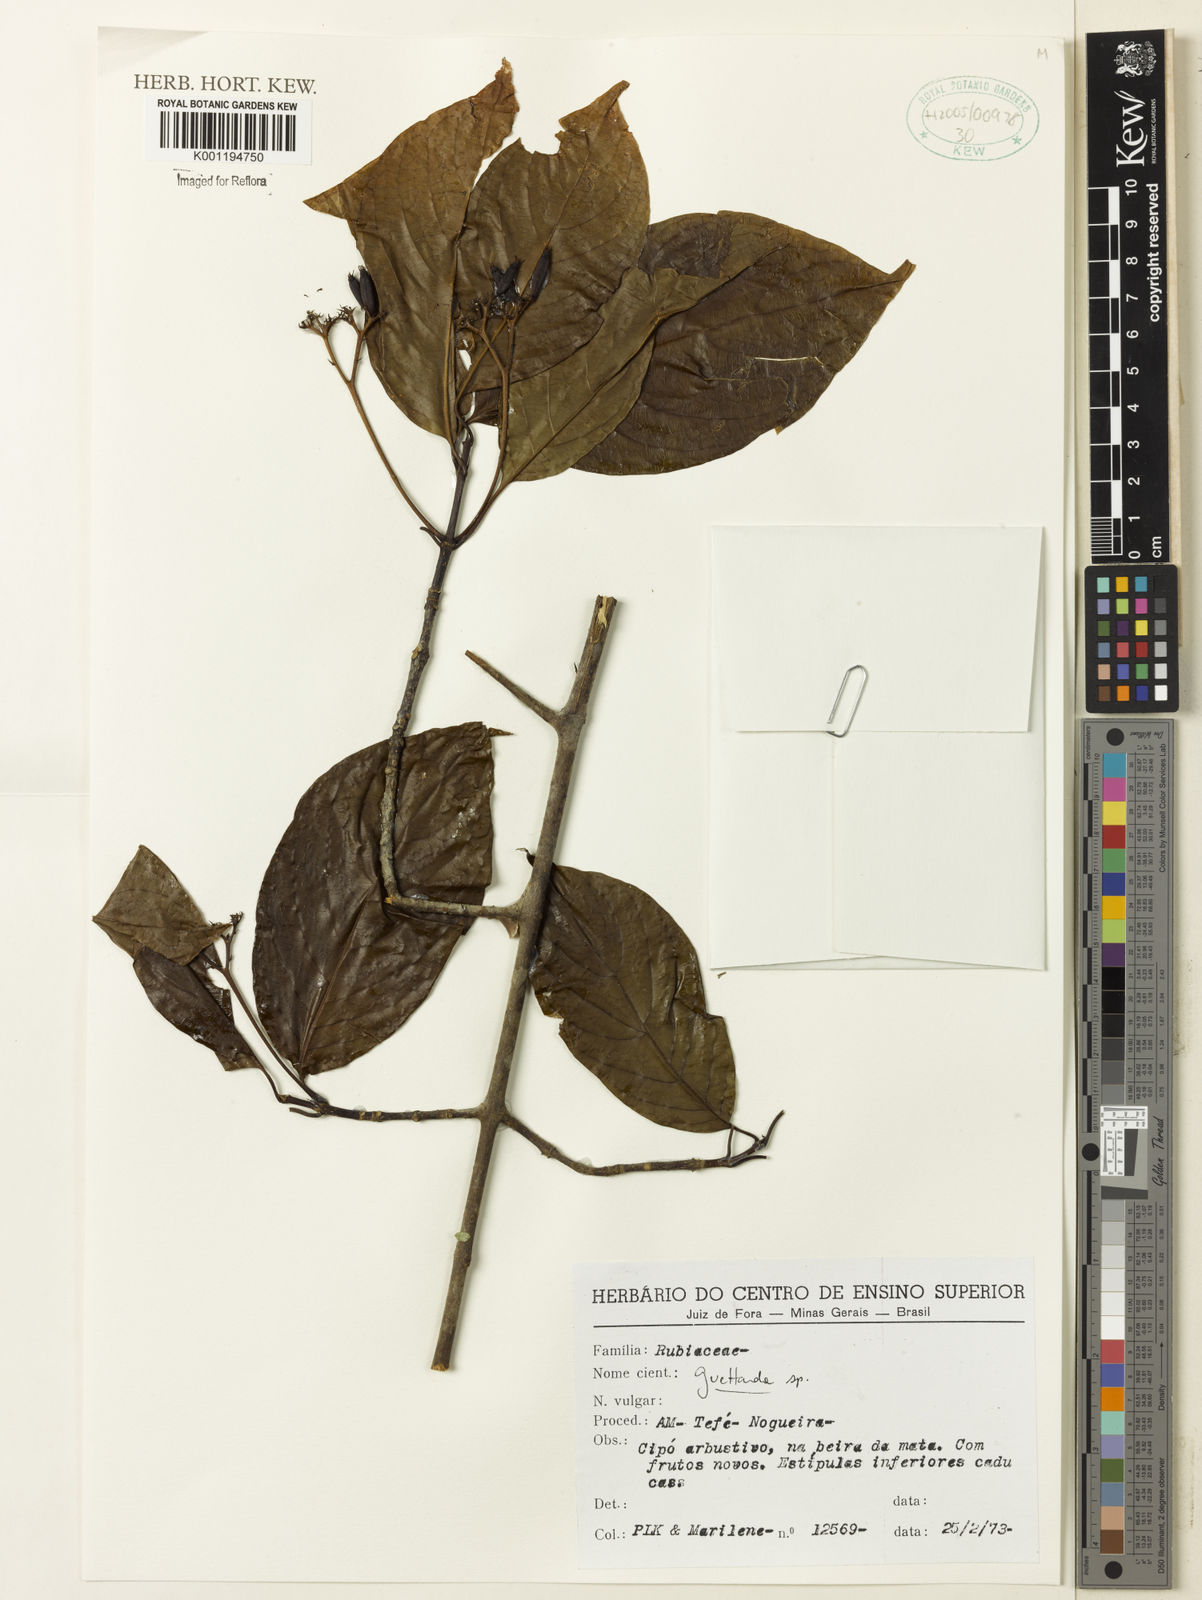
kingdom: Plantae
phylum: Tracheophyta
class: Magnoliopsida
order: Gentianales
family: Rubiaceae
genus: Guettarda
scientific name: Guettarda
